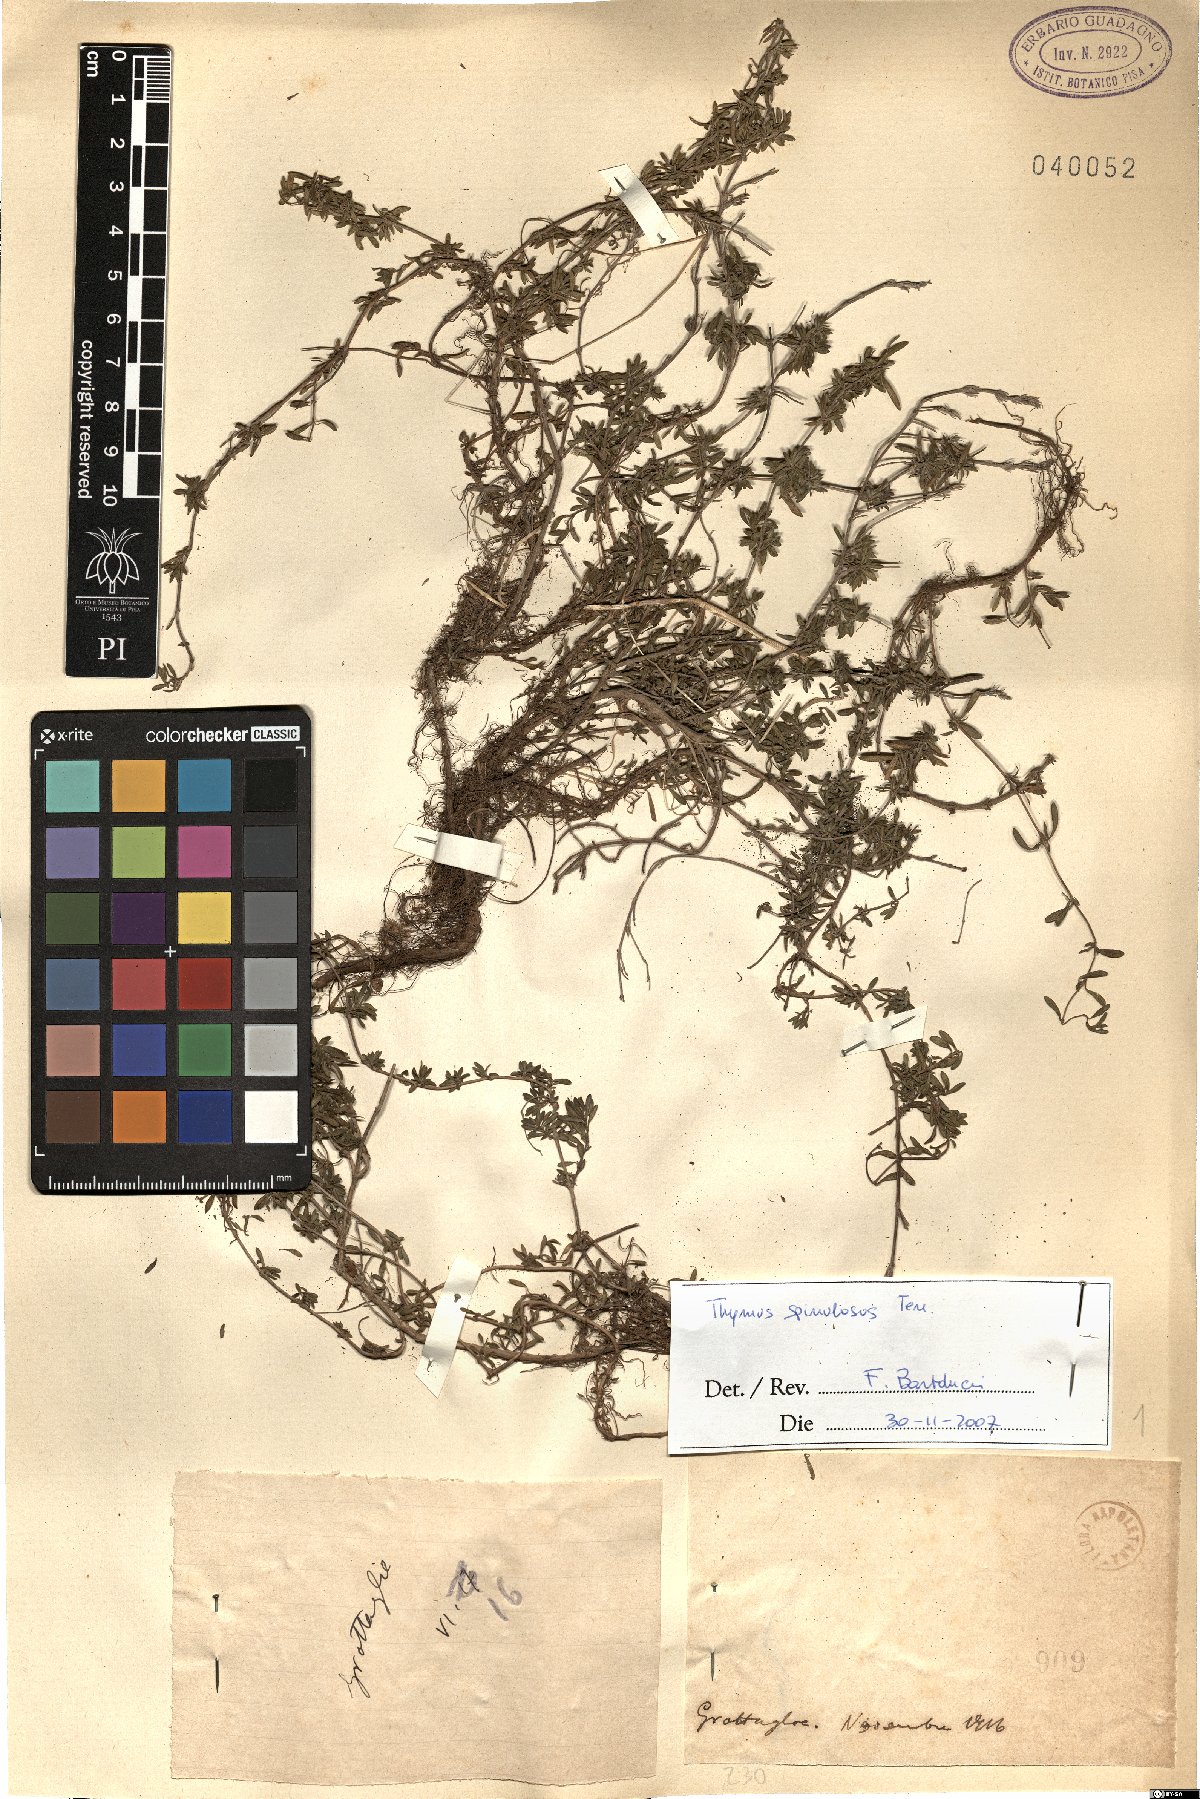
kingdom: Plantae
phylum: Tracheophyta
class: Magnoliopsida
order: Lamiales
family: Lamiaceae
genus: Thymus
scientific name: Thymus spinulosus
